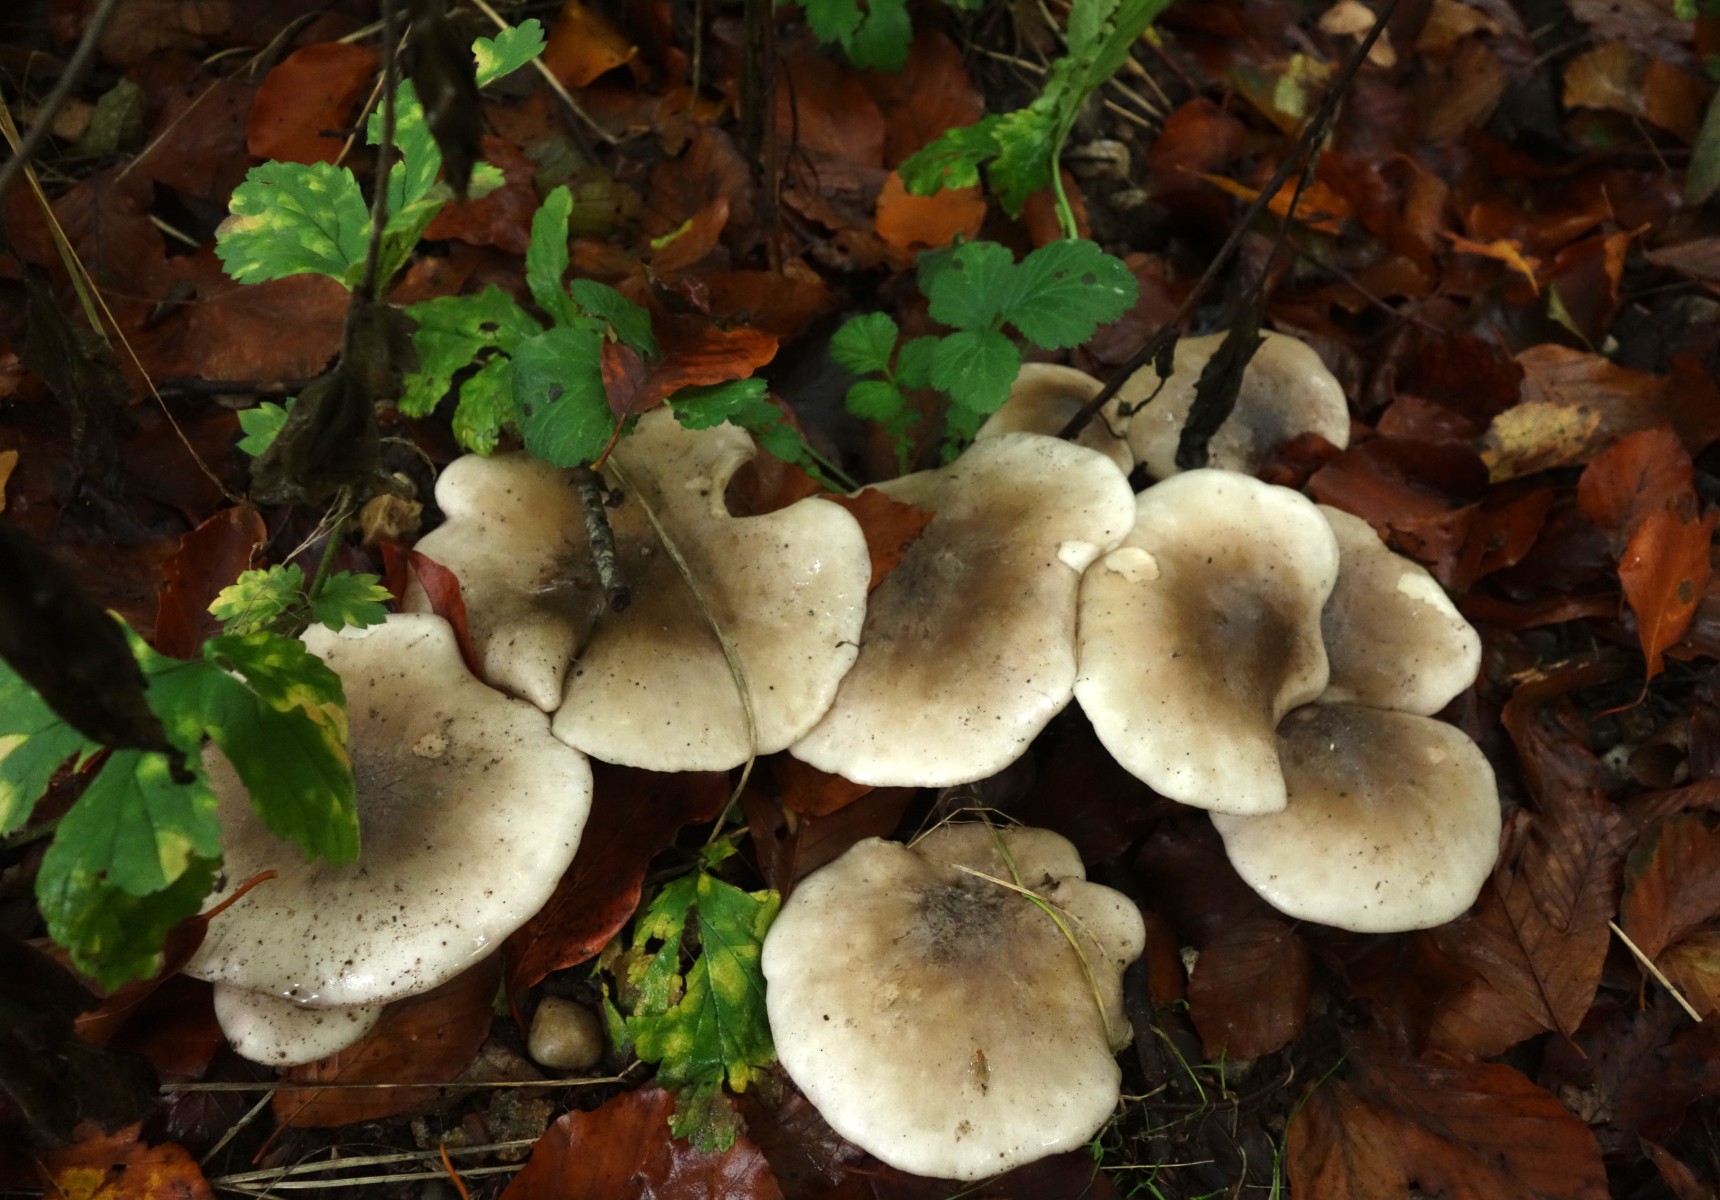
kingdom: Fungi
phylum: Basidiomycota
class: Agaricomycetes
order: Agaricales
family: Tricholomataceae
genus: Clitocybe
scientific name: Clitocybe nebularis
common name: tåge-tragthat
